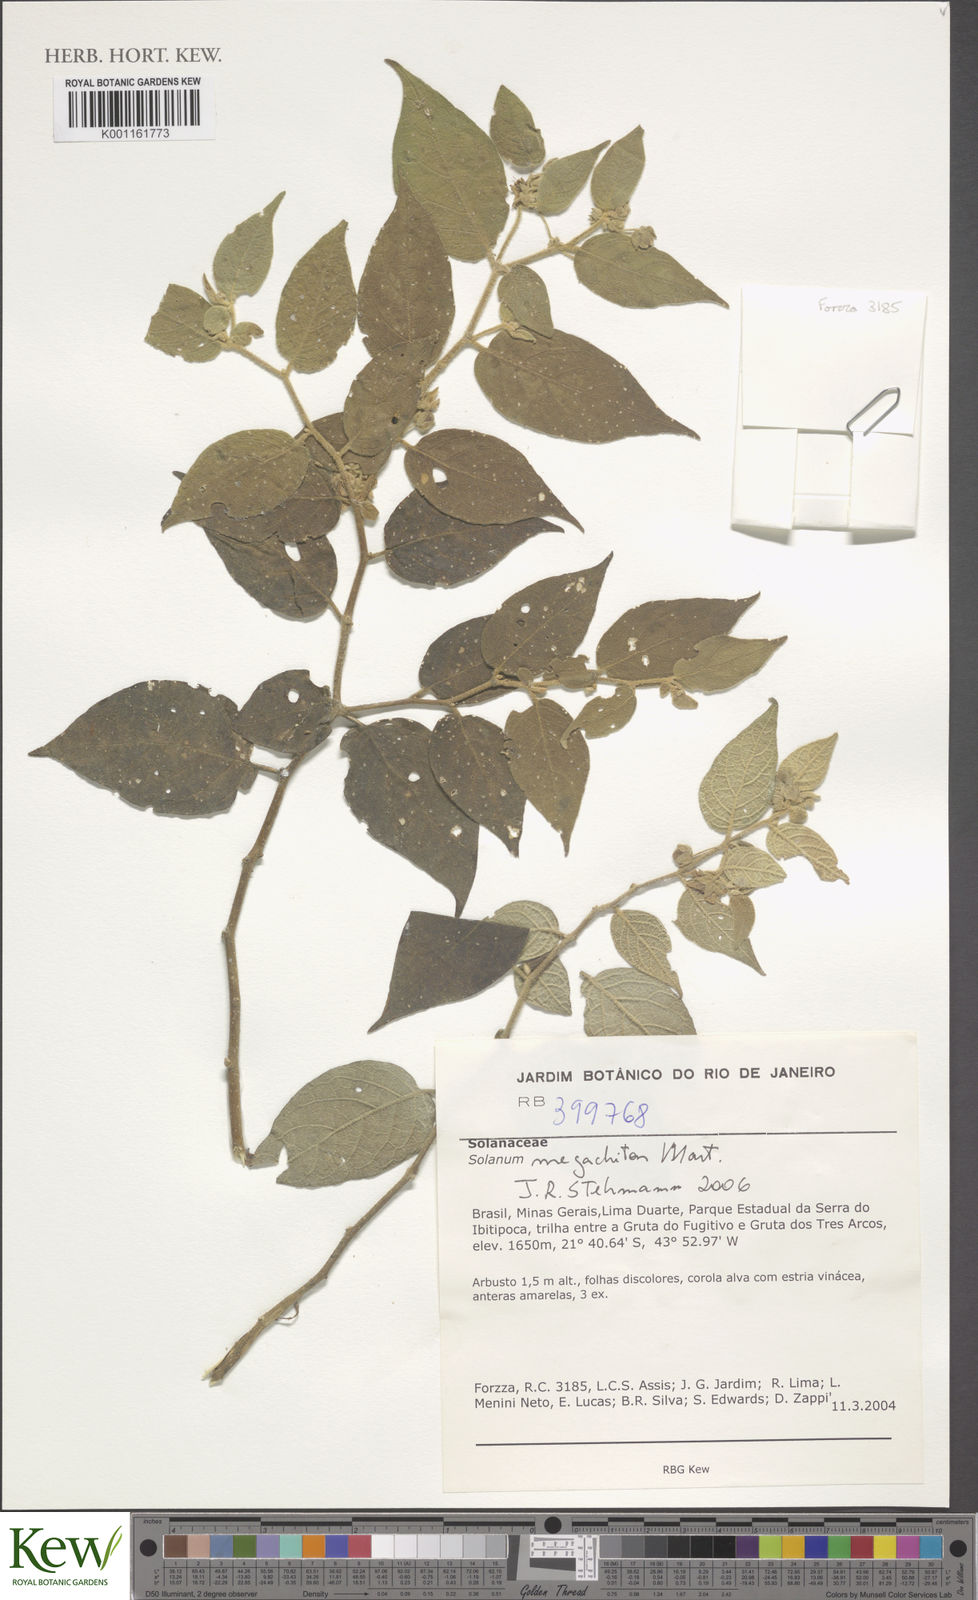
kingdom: Plantae
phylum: Tracheophyta
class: Magnoliopsida
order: Solanales
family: Solanaceae
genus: Solanum
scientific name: Solanum didymum
